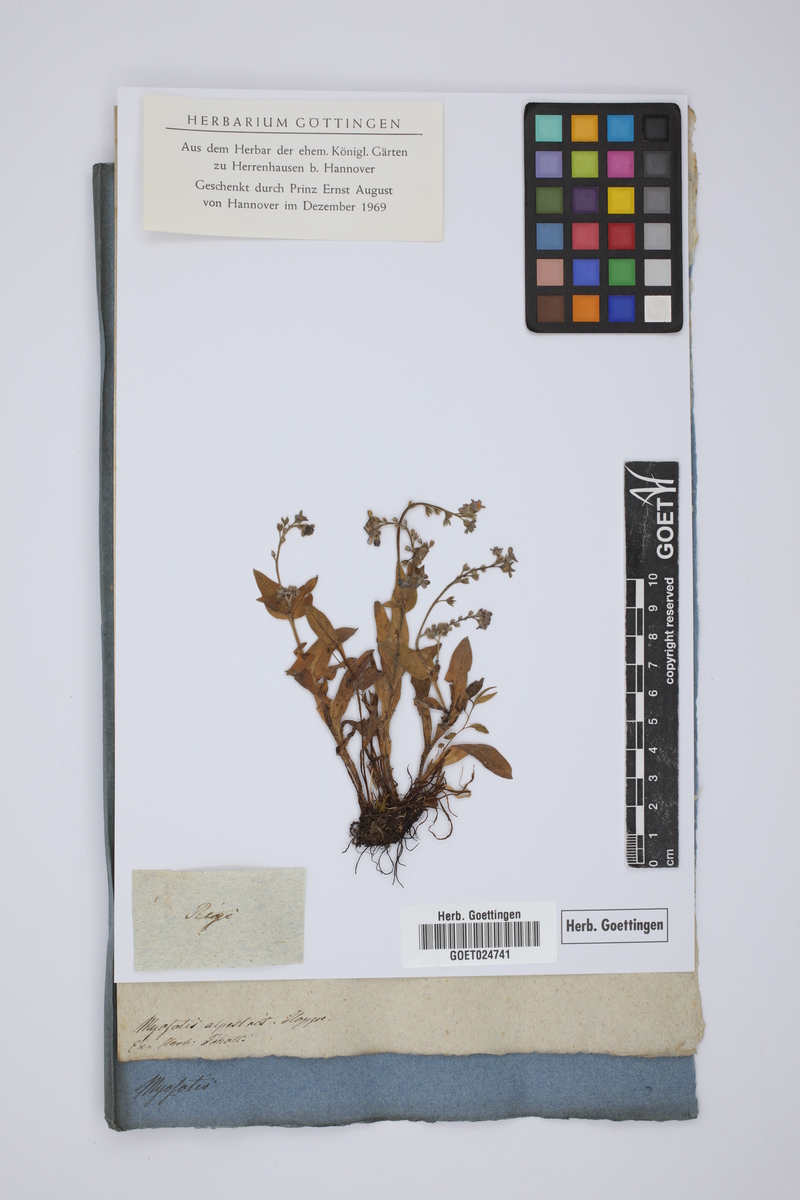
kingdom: Plantae
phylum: Tracheophyta
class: Magnoliopsida
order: Boraginales
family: Boraginaceae
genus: Myosotis
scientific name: Myosotis alpestris
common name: Alpine forget-me-not
